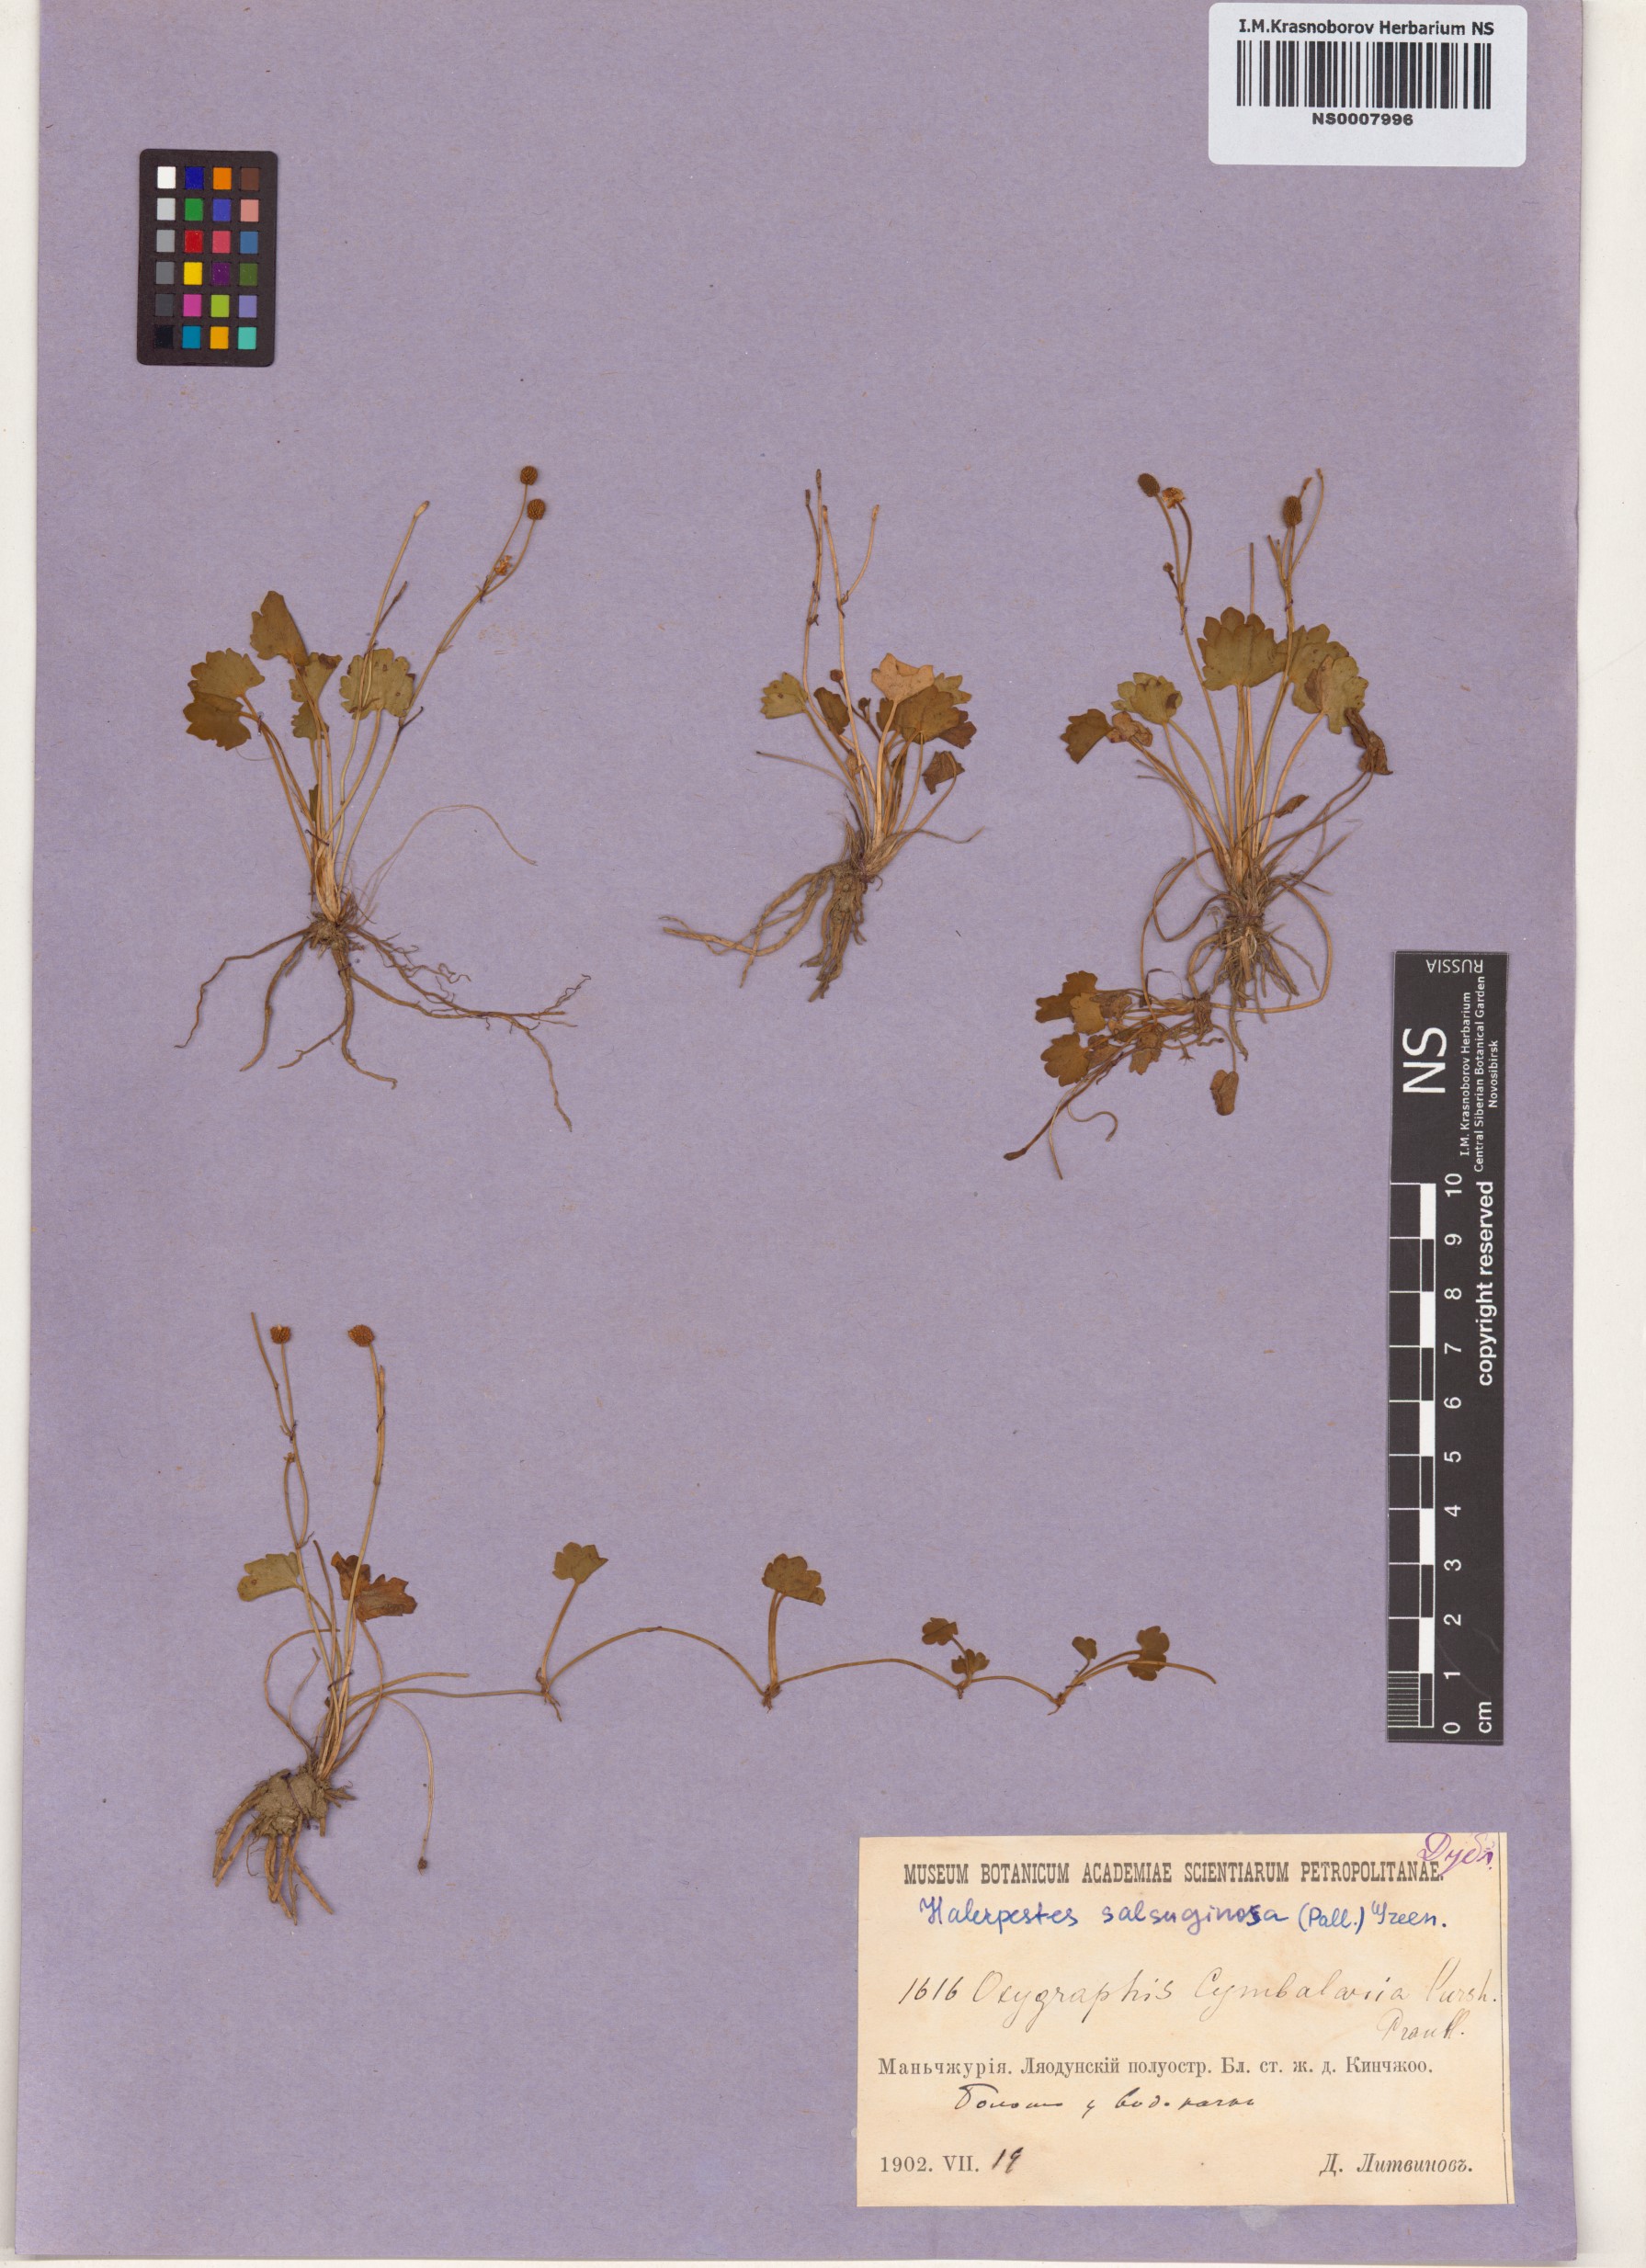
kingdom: Plantae
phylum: Tracheophyta
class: Magnoliopsida
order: Ranunculales
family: Ranunculaceae
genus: Halerpestes
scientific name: Halerpestes sarmentosus
